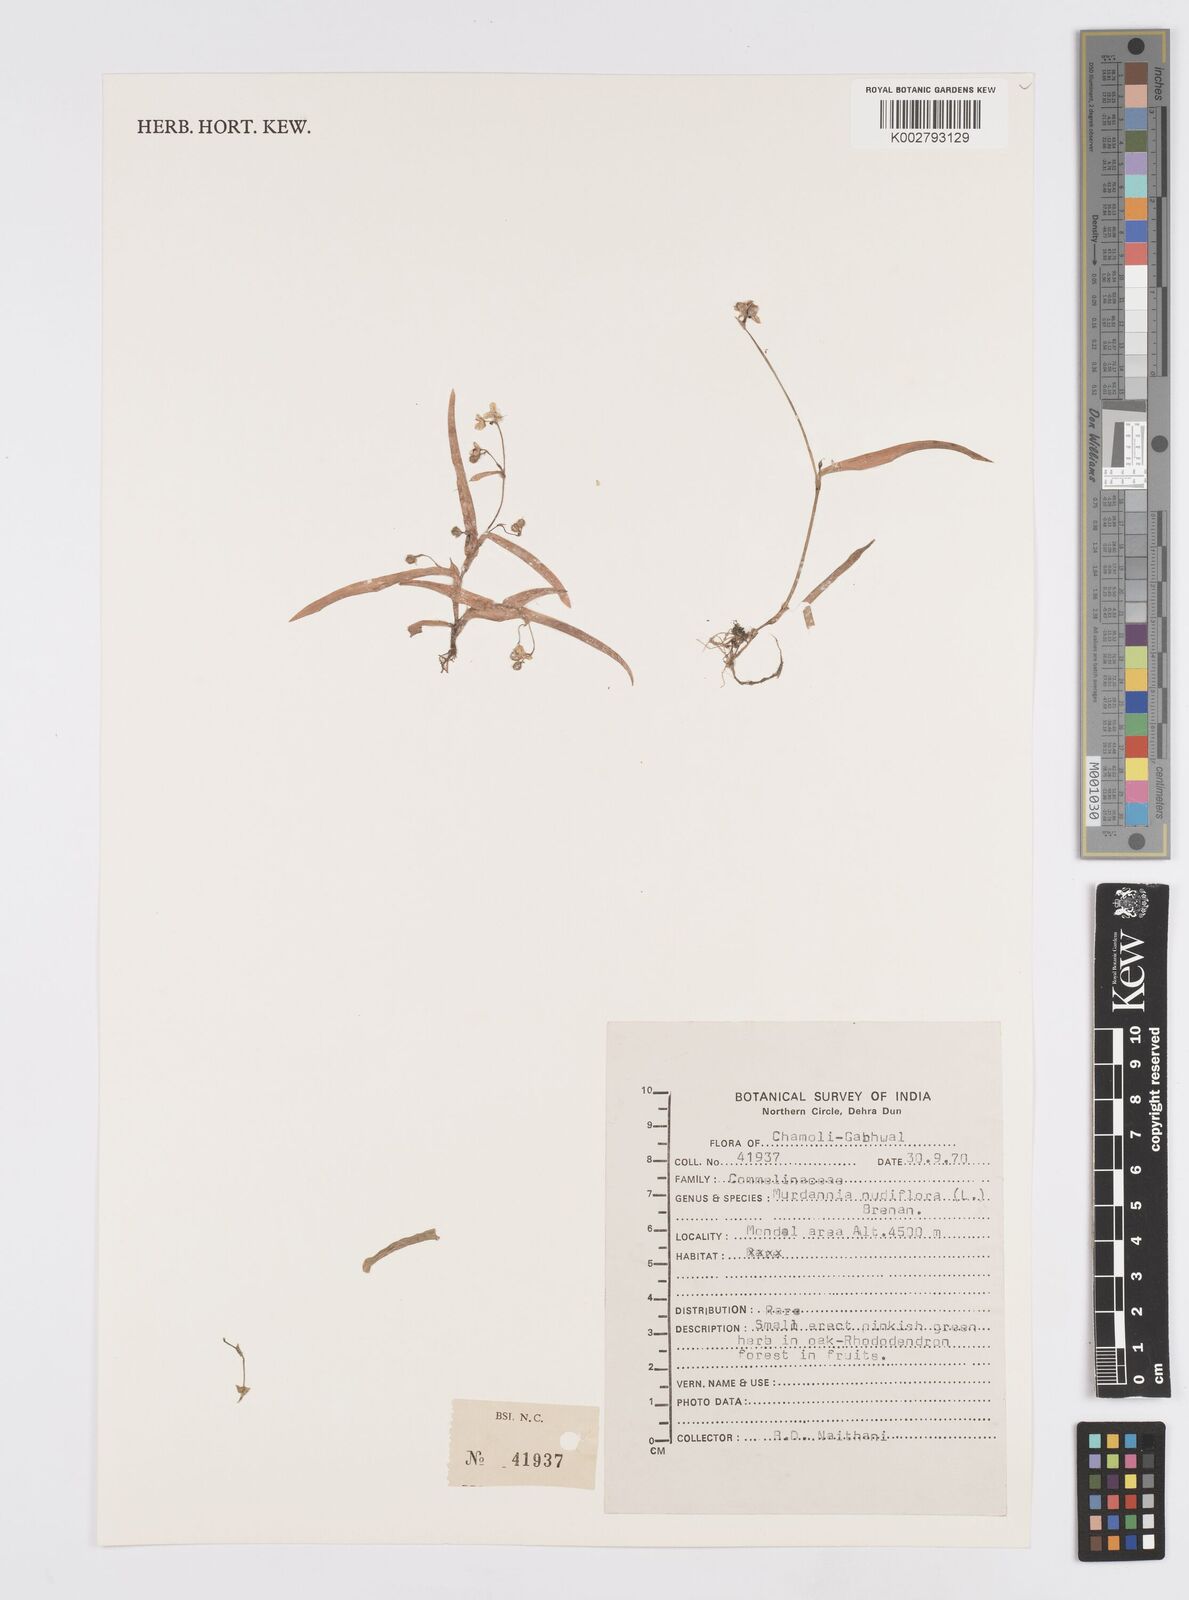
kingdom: Plantae
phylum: Tracheophyta
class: Liliopsida
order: Commelinales
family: Commelinaceae
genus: Murdannia
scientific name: Murdannia nudiflora
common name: Nakedstem dewflower
